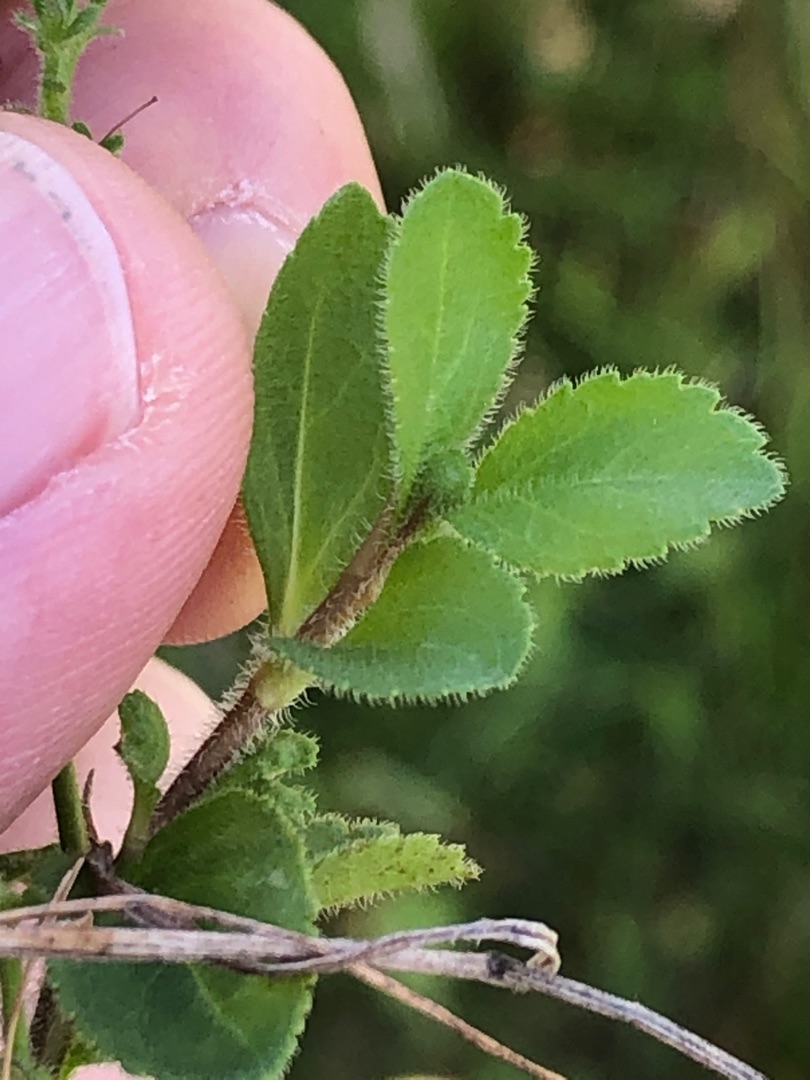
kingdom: Plantae
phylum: Tracheophyta
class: Magnoliopsida
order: Lamiales
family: Plantaginaceae
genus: Veronica
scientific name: Veronica officinalis
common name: Læge-ærenpris
